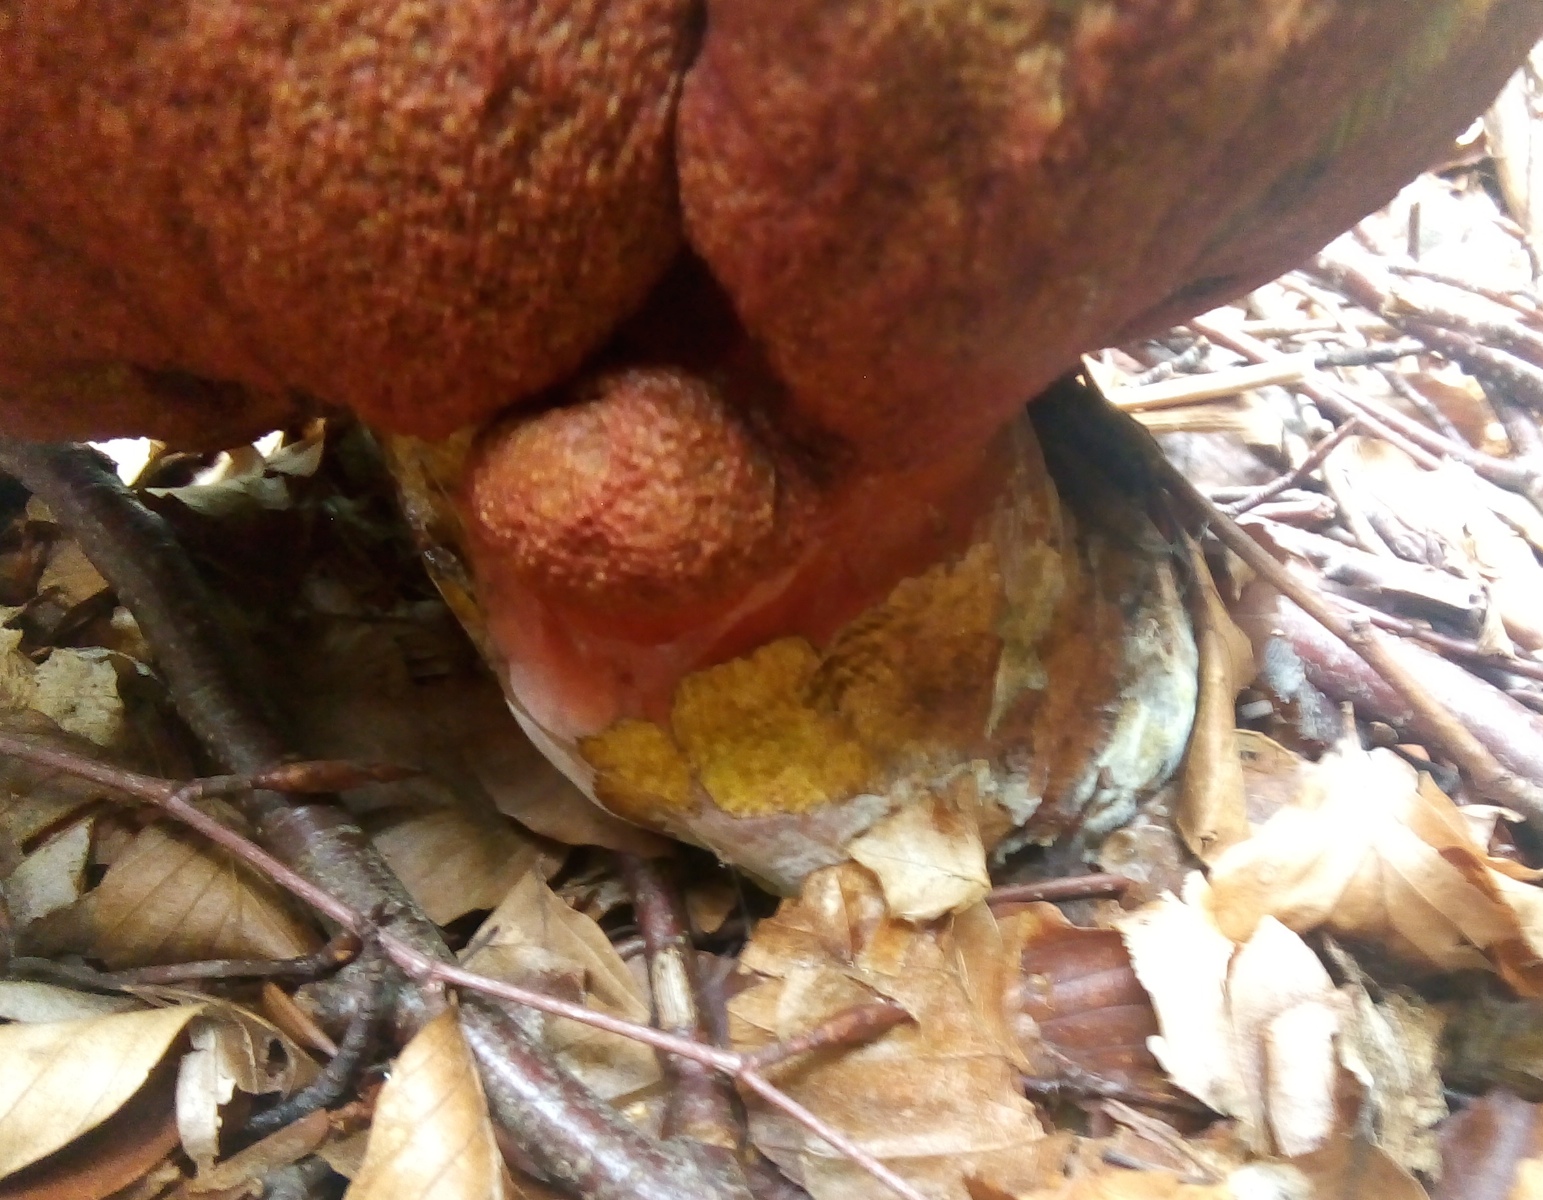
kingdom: Fungi
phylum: Basidiomycota
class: Agaricomycetes
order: Boletales
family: Boletaceae
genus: Neoboletus
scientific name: Neoboletus erythropus
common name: punktstokket indigorørhat
